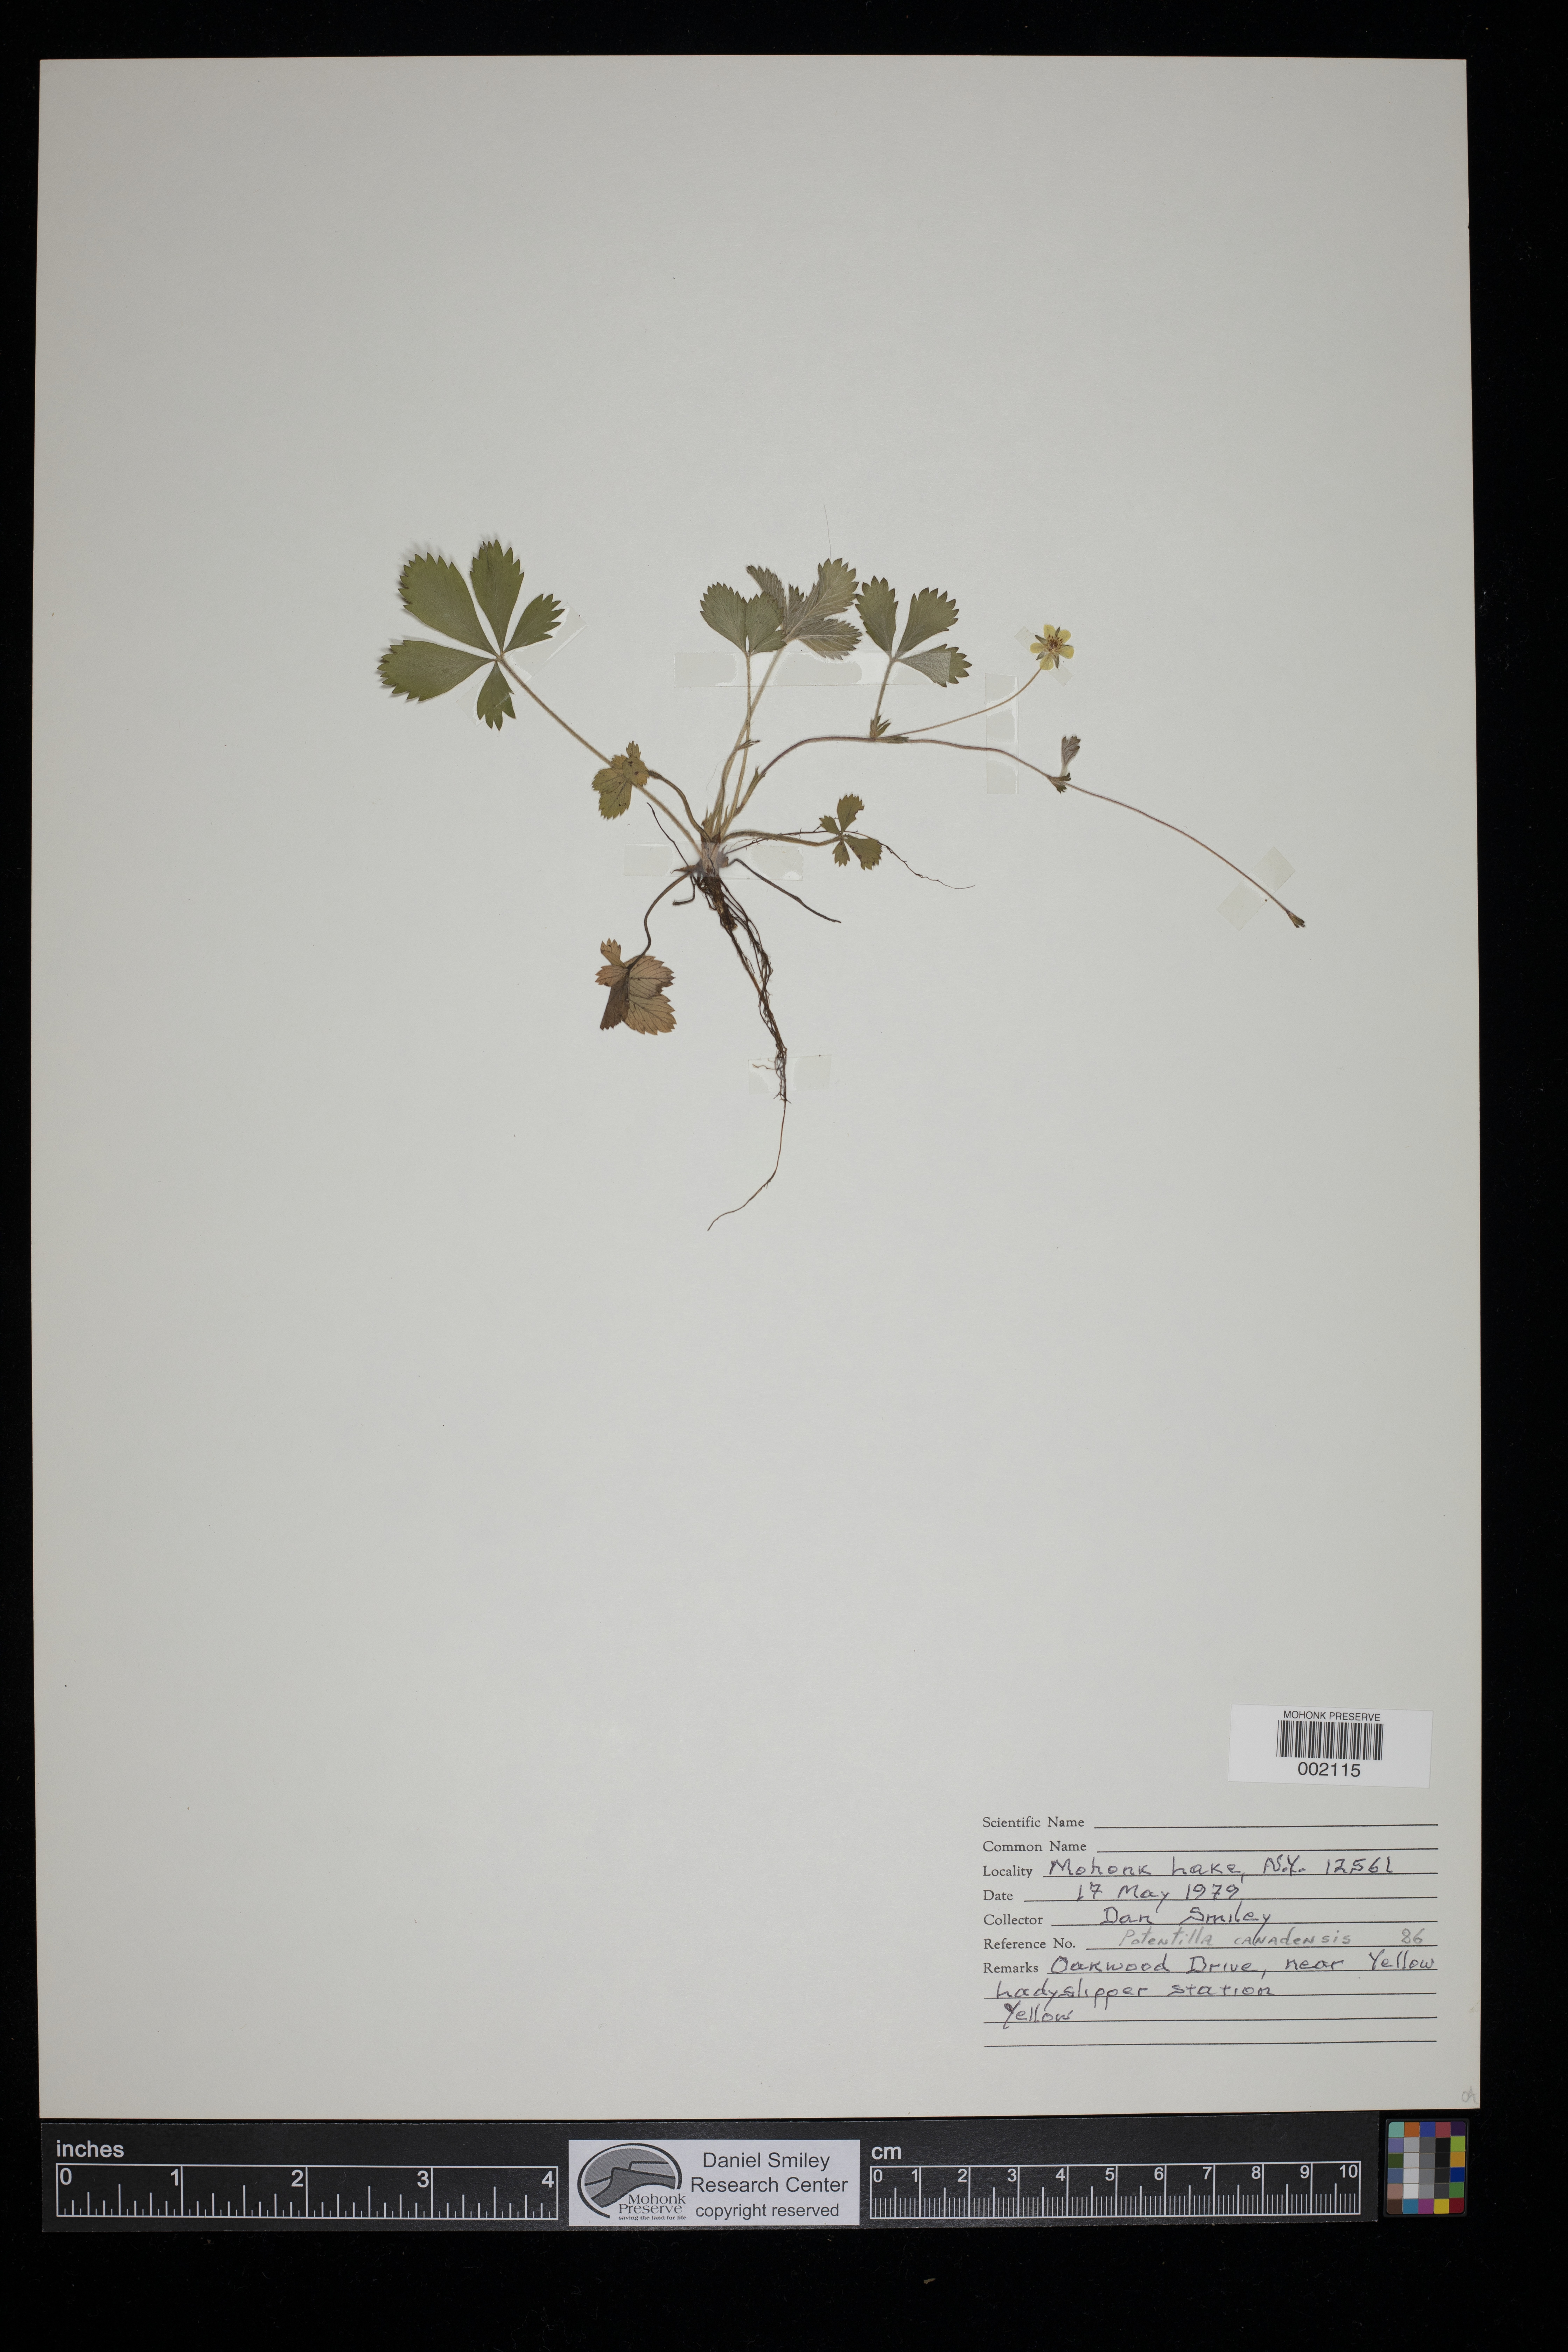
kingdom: Plantae
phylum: Tracheophyta
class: Magnoliopsida
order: Rosales
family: Rosaceae
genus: Potentilla
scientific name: Potentilla canadensis
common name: Canada cinquefoil
